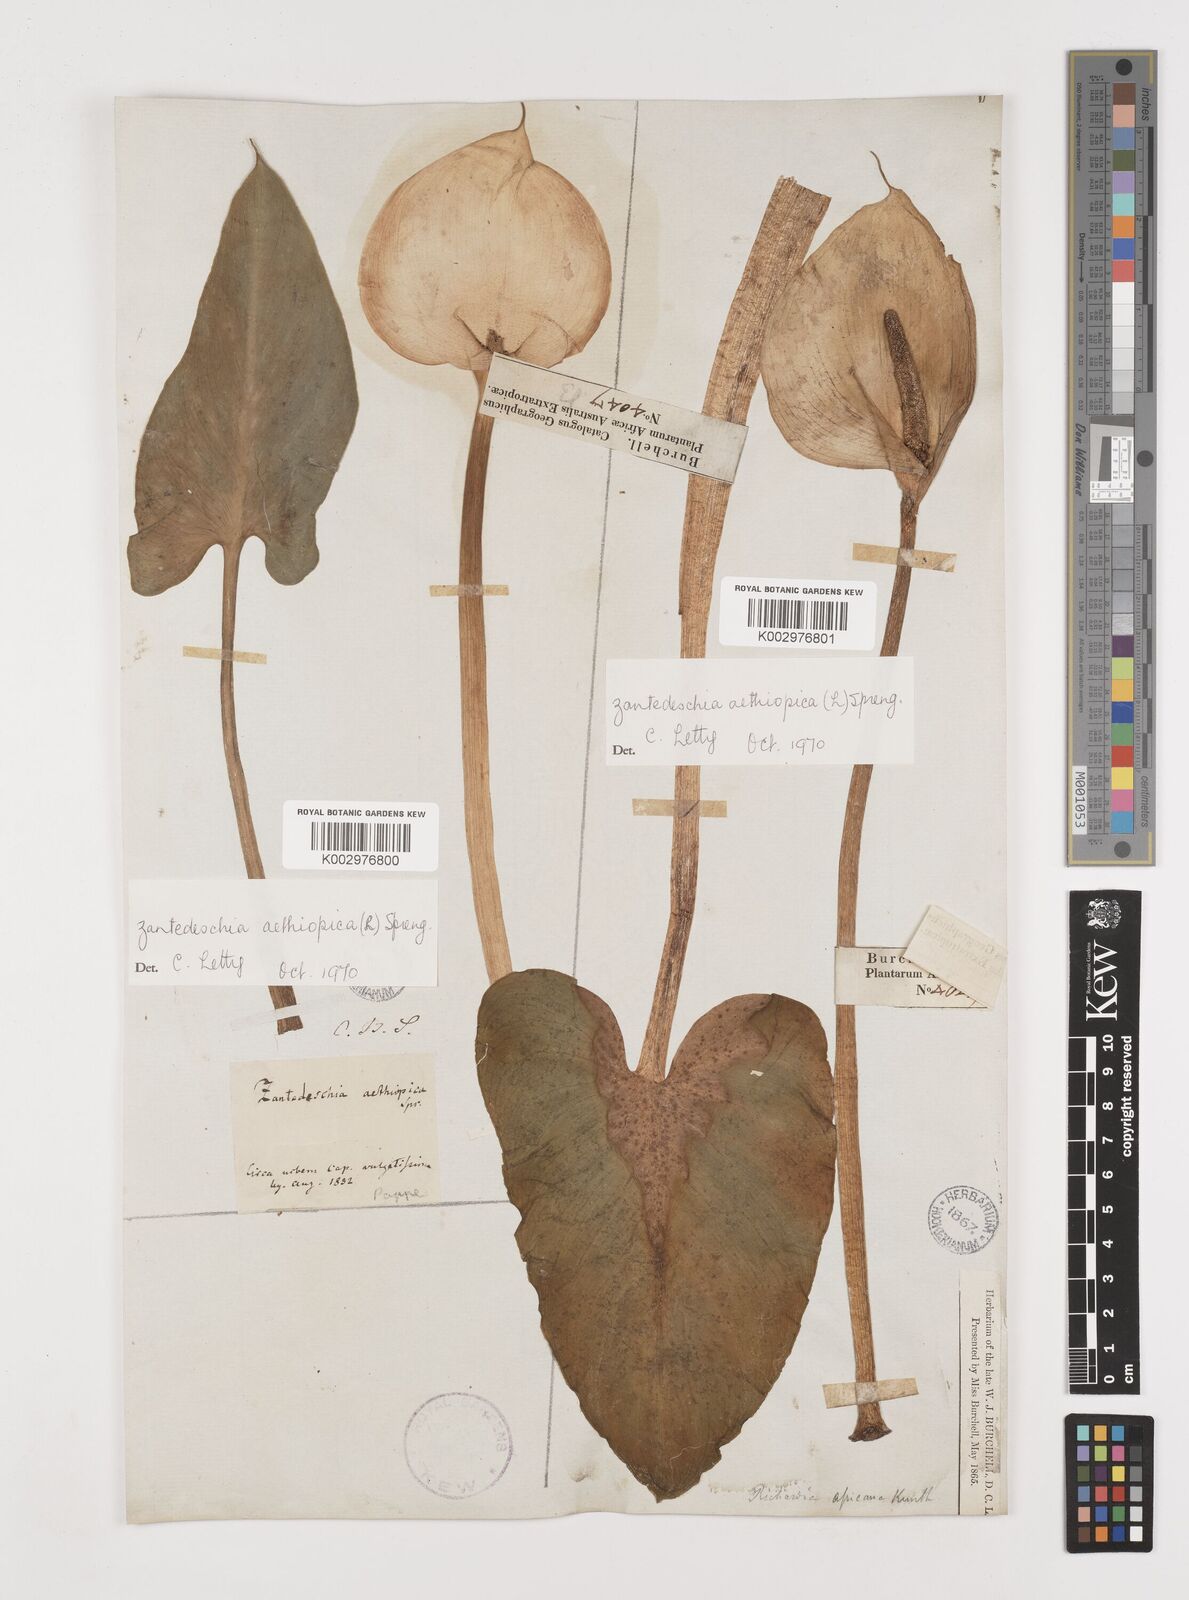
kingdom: Plantae
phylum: Tracheophyta
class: Liliopsida
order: Alismatales
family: Araceae
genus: Zantedeschia
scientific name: Zantedeschia aethiopica
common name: Altar-lily
